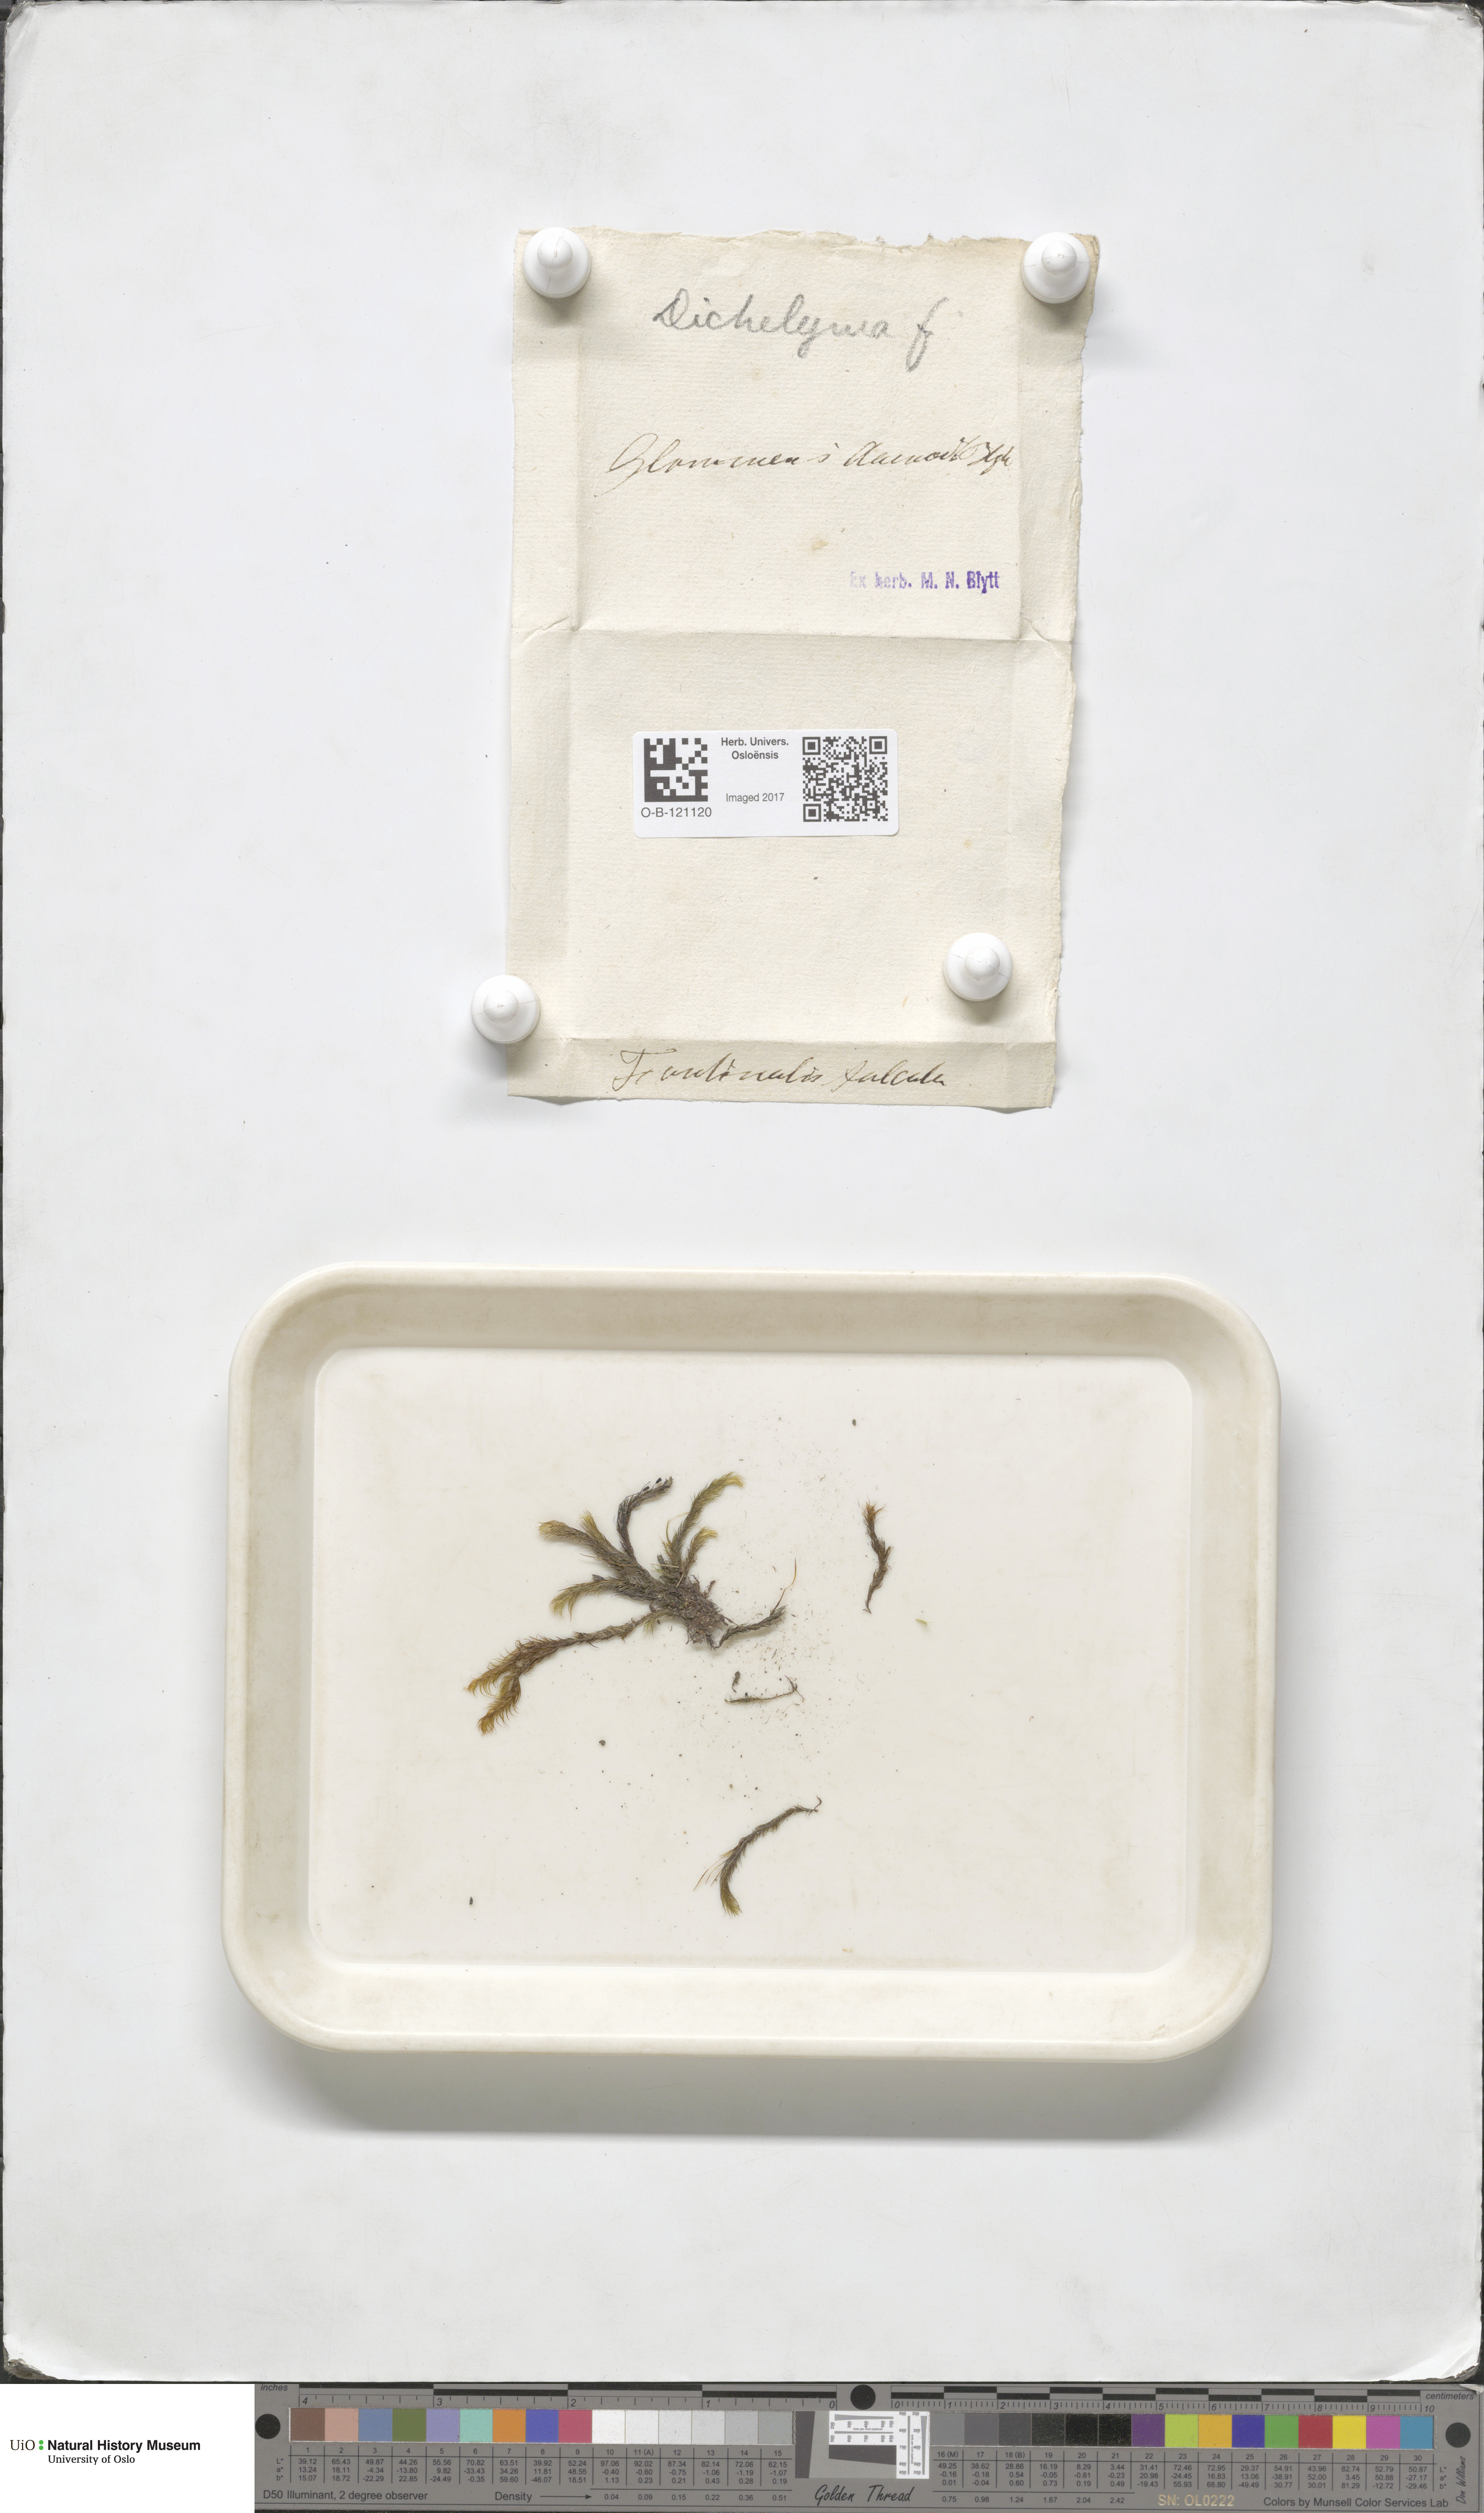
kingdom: Plantae
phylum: Bryophyta
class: Bryopsida
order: Hypnales
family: Fontinalaceae
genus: Dichelyma
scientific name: Dichelyma falcatum
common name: Lance-leaved claw moss
